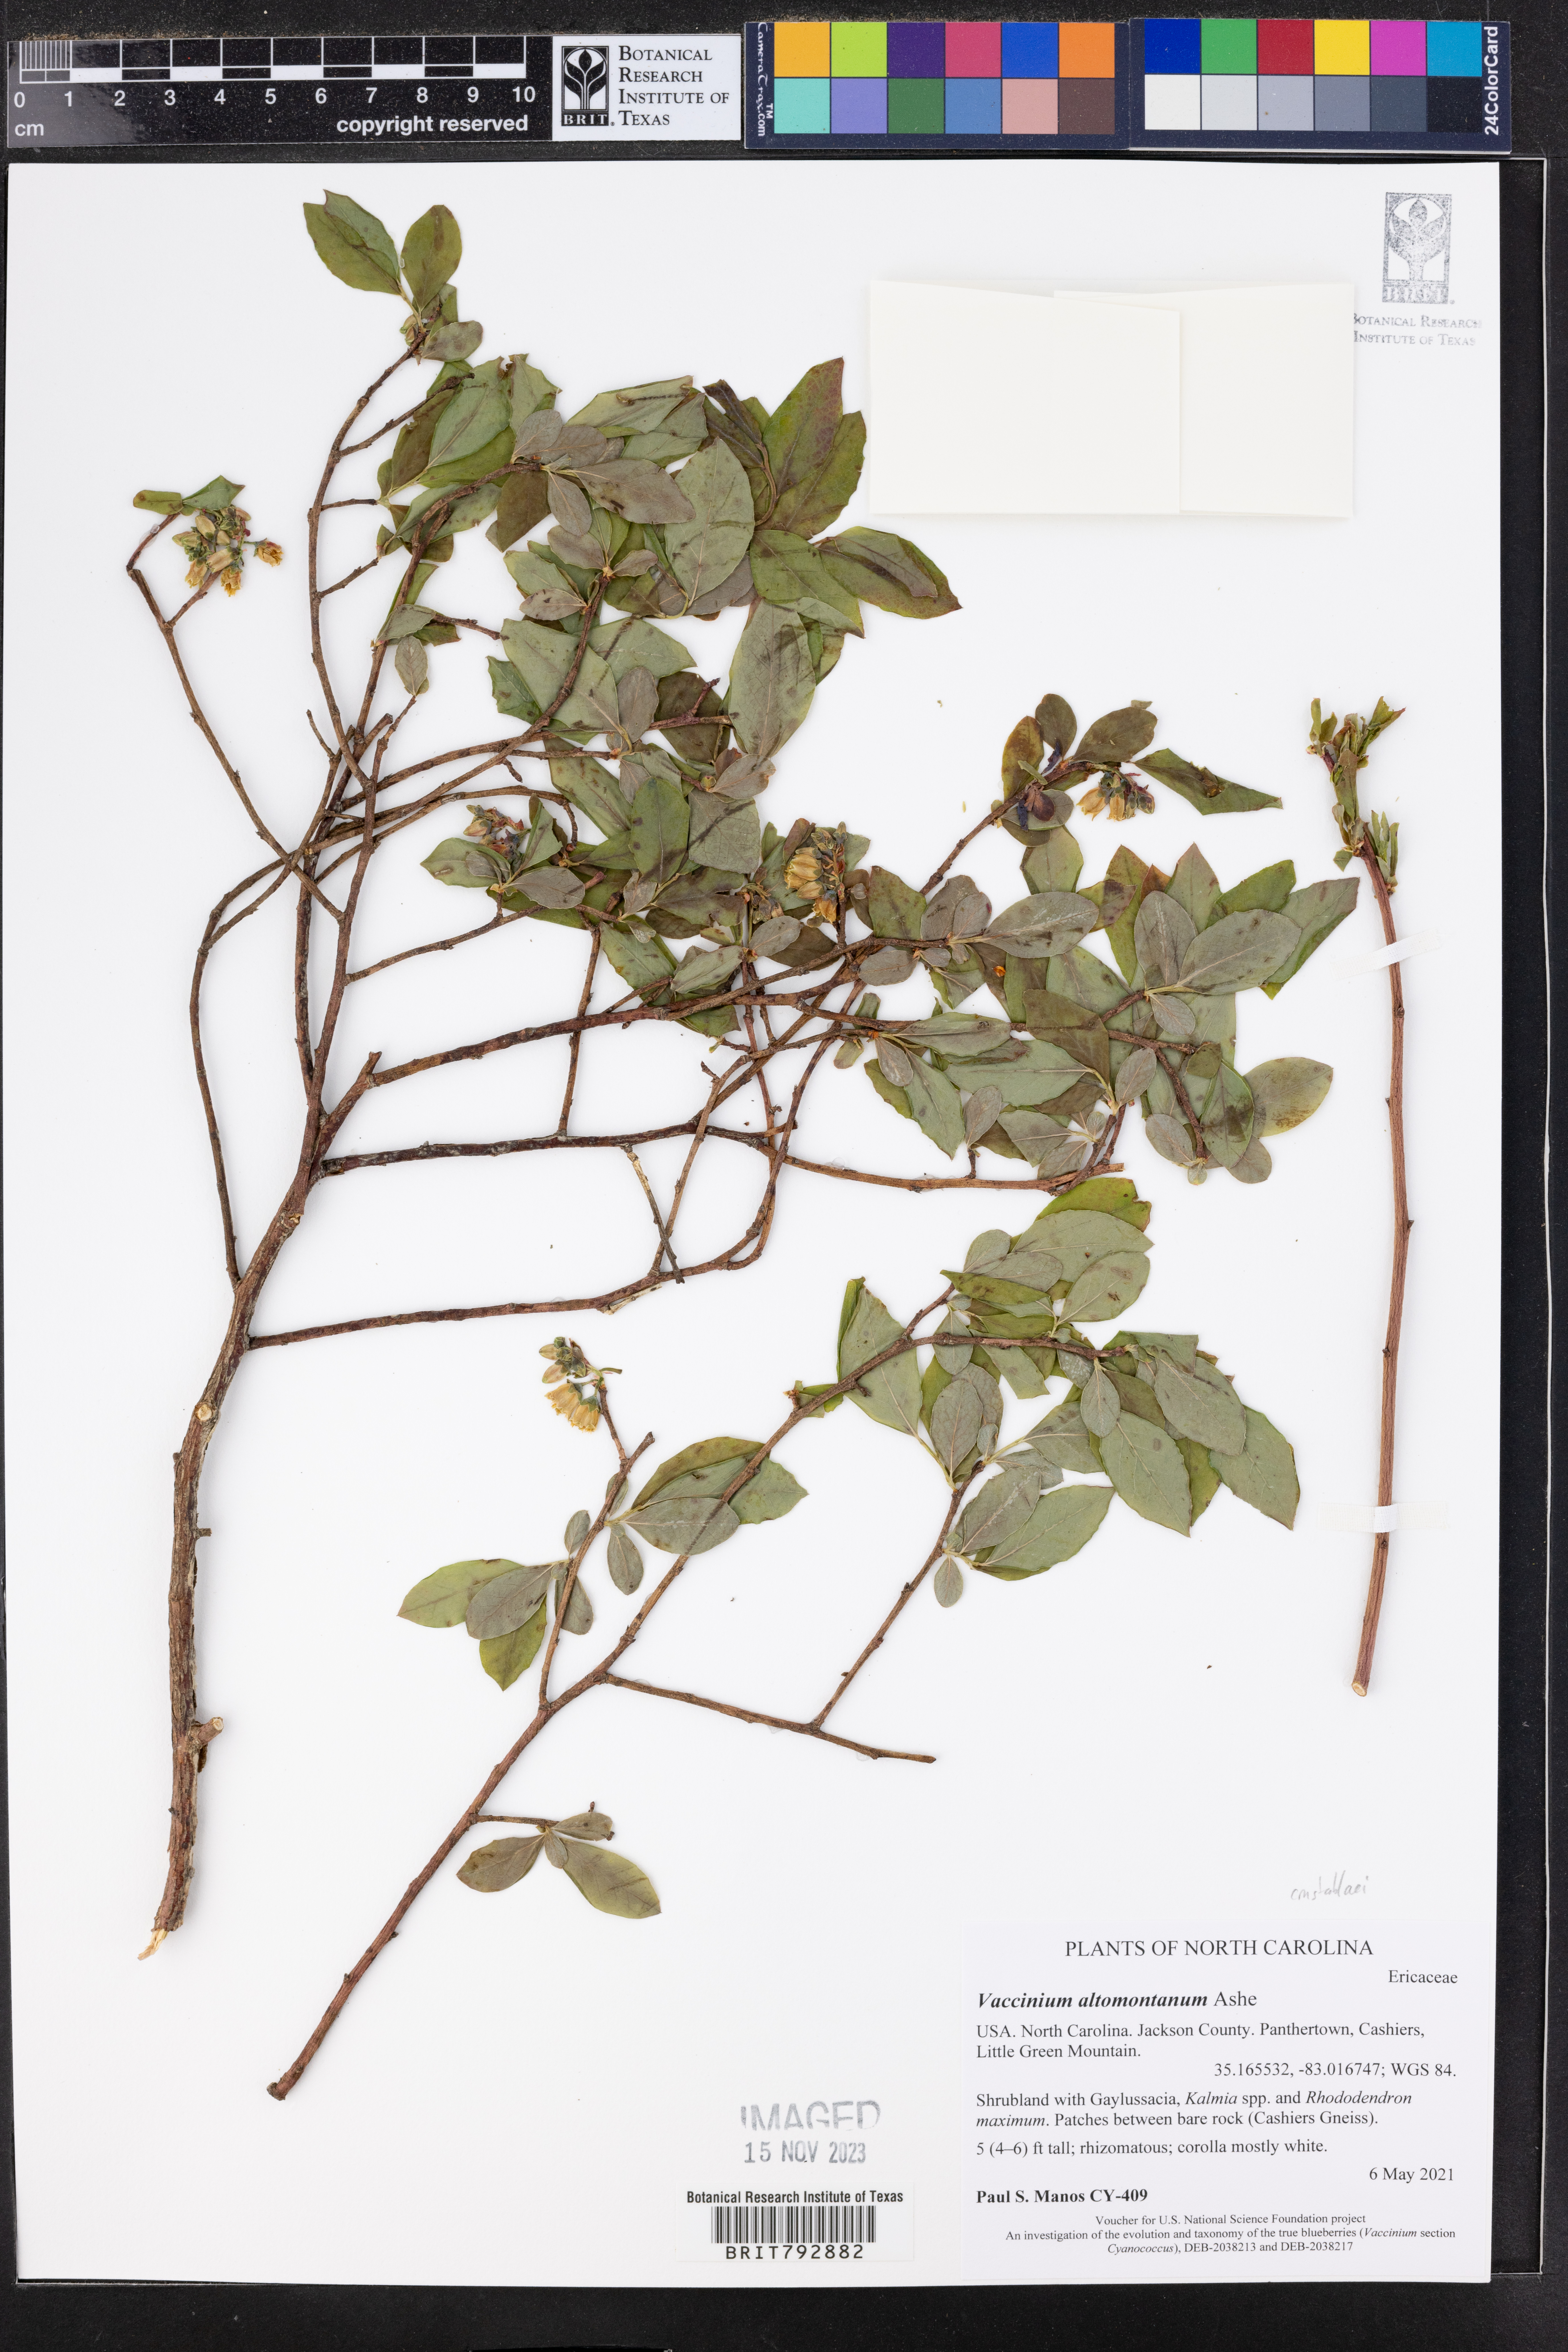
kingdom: Plantae
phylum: Tracheophyta
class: Magnoliopsida
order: Ericales
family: Ericaceae
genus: Vaccinium
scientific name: Vaccinium pallidum
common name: Blue ridge blueberry
